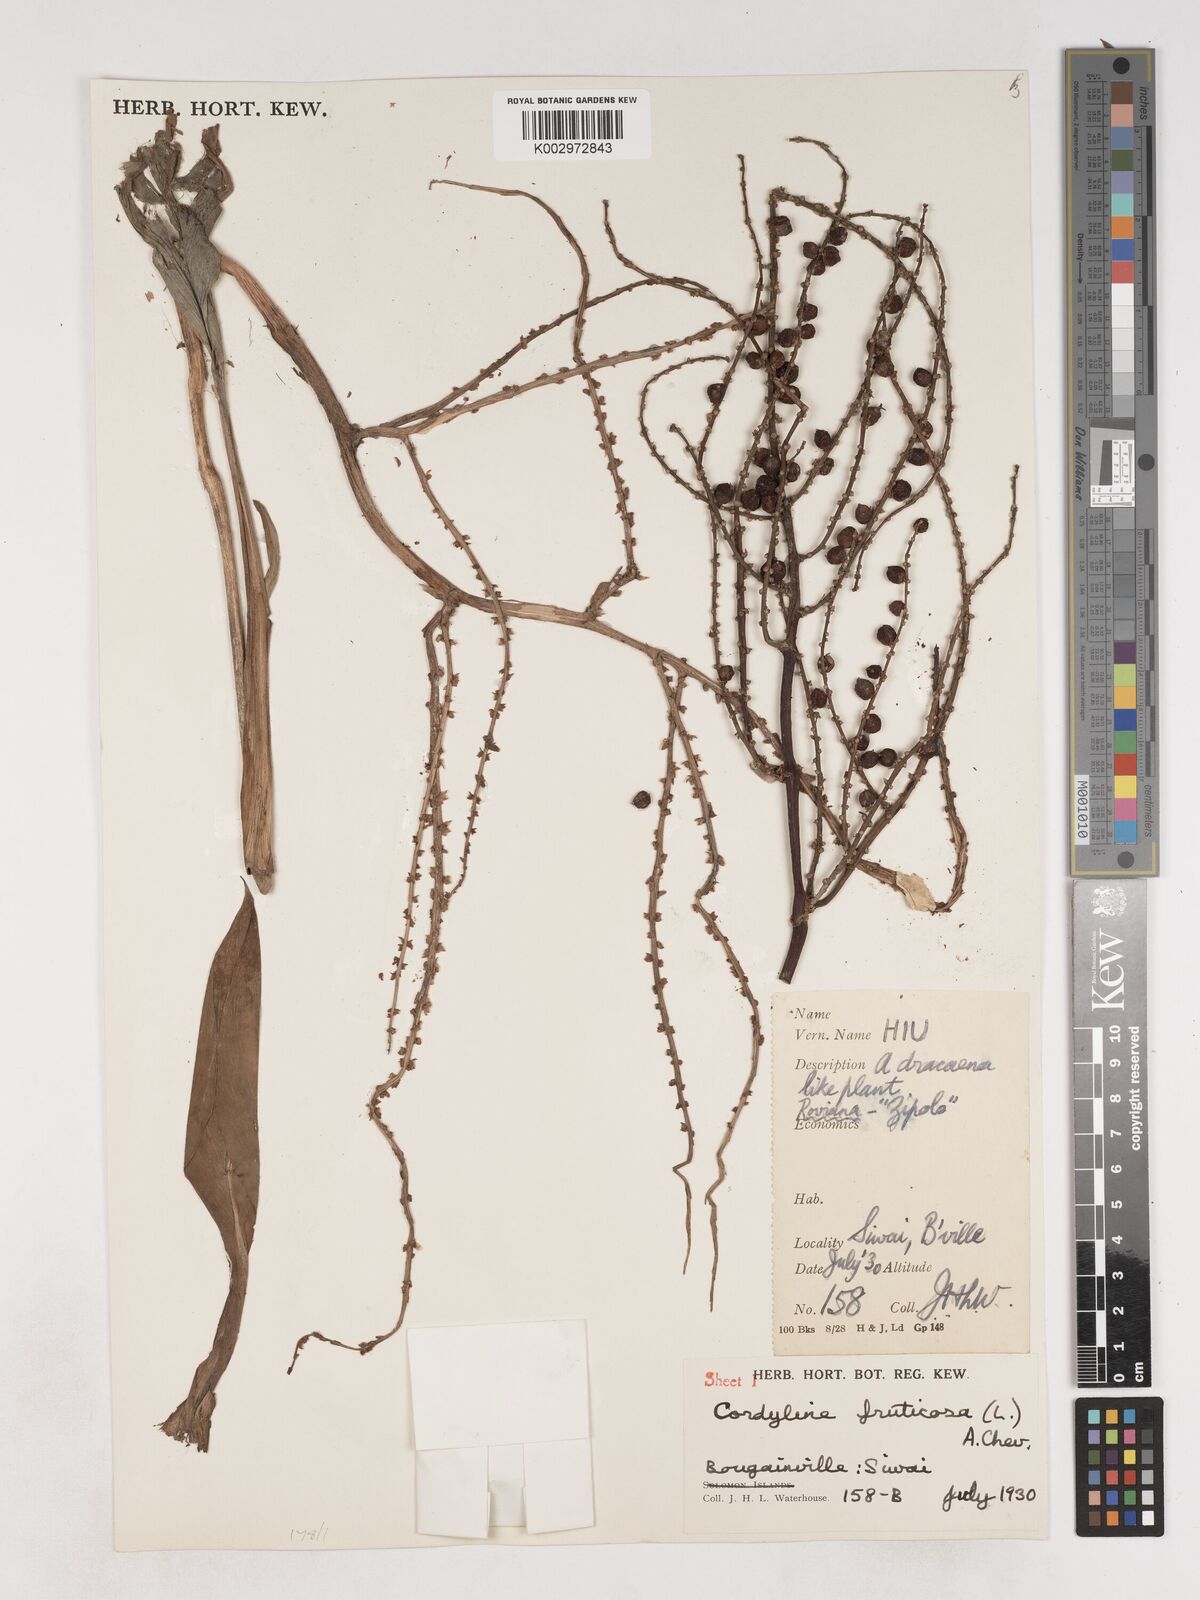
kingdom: Plantae
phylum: Tracheophyta
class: Liliopsida
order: Asparagales
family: Asparagaceae
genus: Cordyline
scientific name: Cordyline fruticosa
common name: Good-luck-plant
